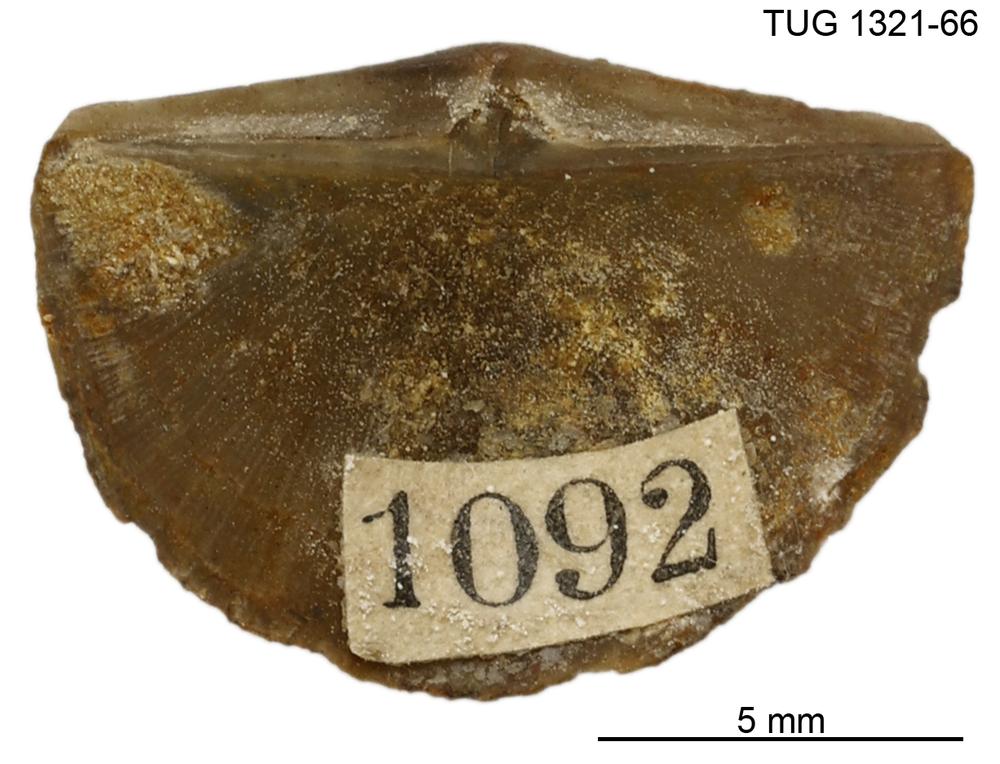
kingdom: Animalia
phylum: Brachiopoda
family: Sowerbyellidae
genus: Sowerbyella
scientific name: Sowerbyella forumi
